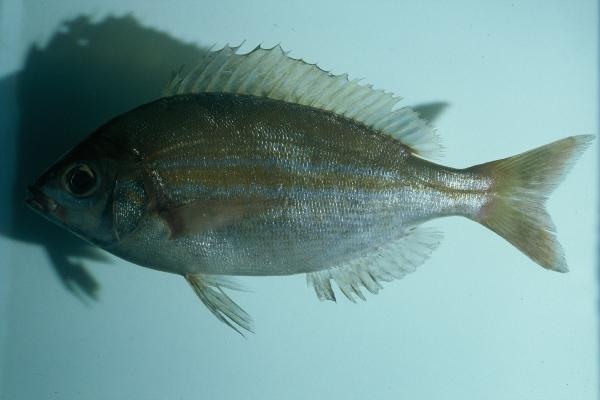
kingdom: Animalia
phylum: Chordata
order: Perciformes
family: Sparidae
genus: Spondyliosoma
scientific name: Spondyliosoma emarginatum
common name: Steentje seabream
